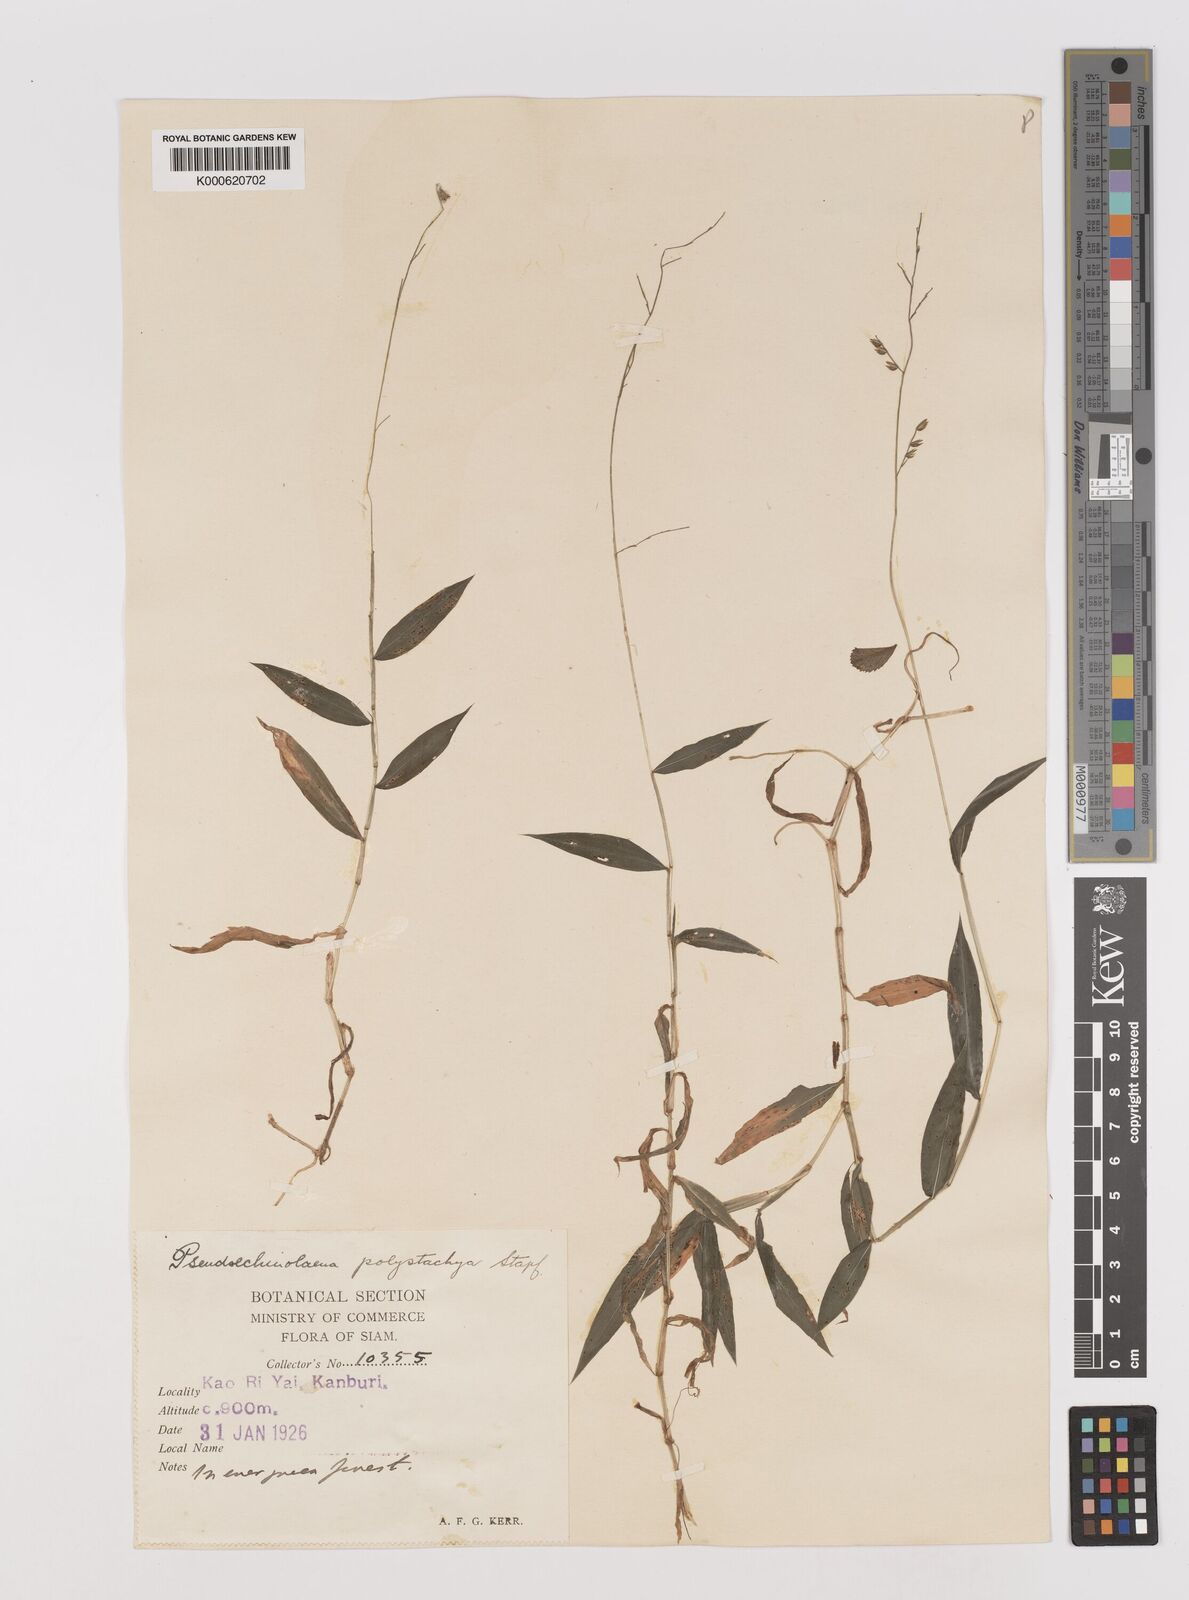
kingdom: Plantae
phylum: Tracheophyta
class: Liliopsida
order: Poales
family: Poaceae
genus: Pseudechinolaena
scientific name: Pseudechinolaena polystachya
